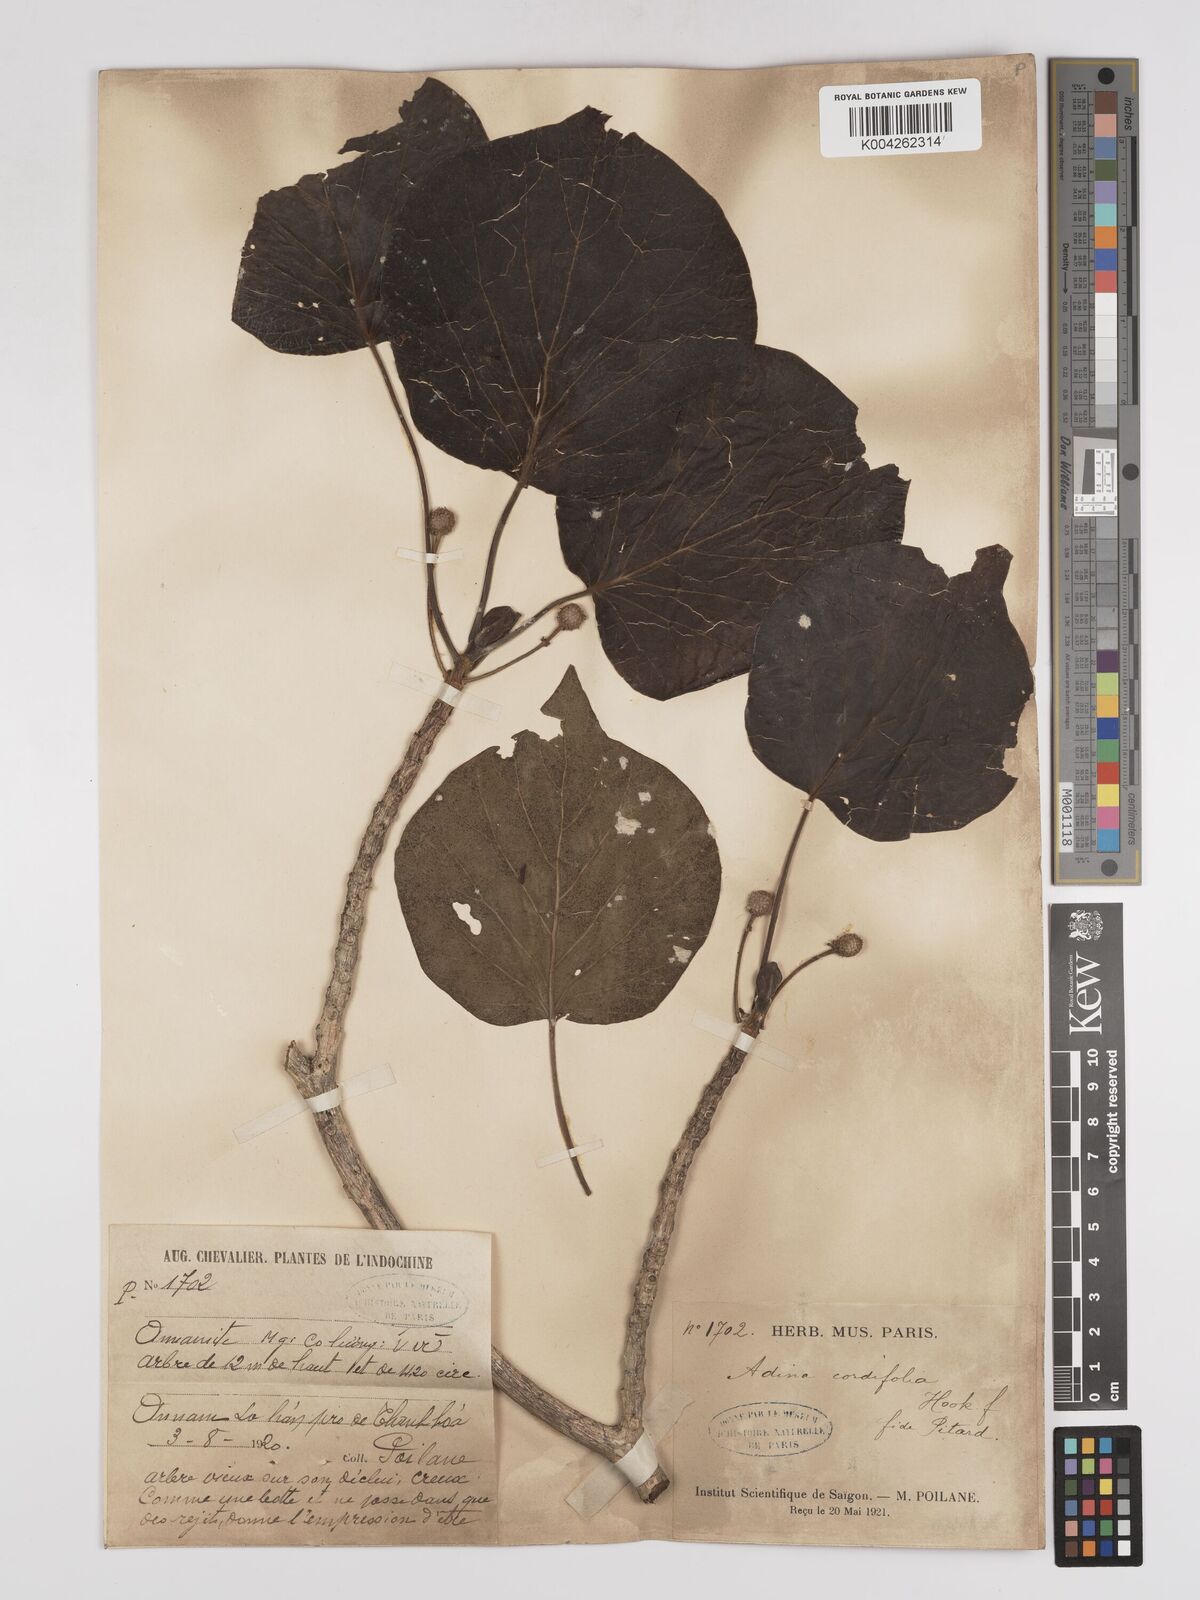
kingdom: Plantae
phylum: Tracheophyta
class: Magnoliopsida
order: Gentianales
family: Rubiaceae
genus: Adina
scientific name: Adina cordifolia
